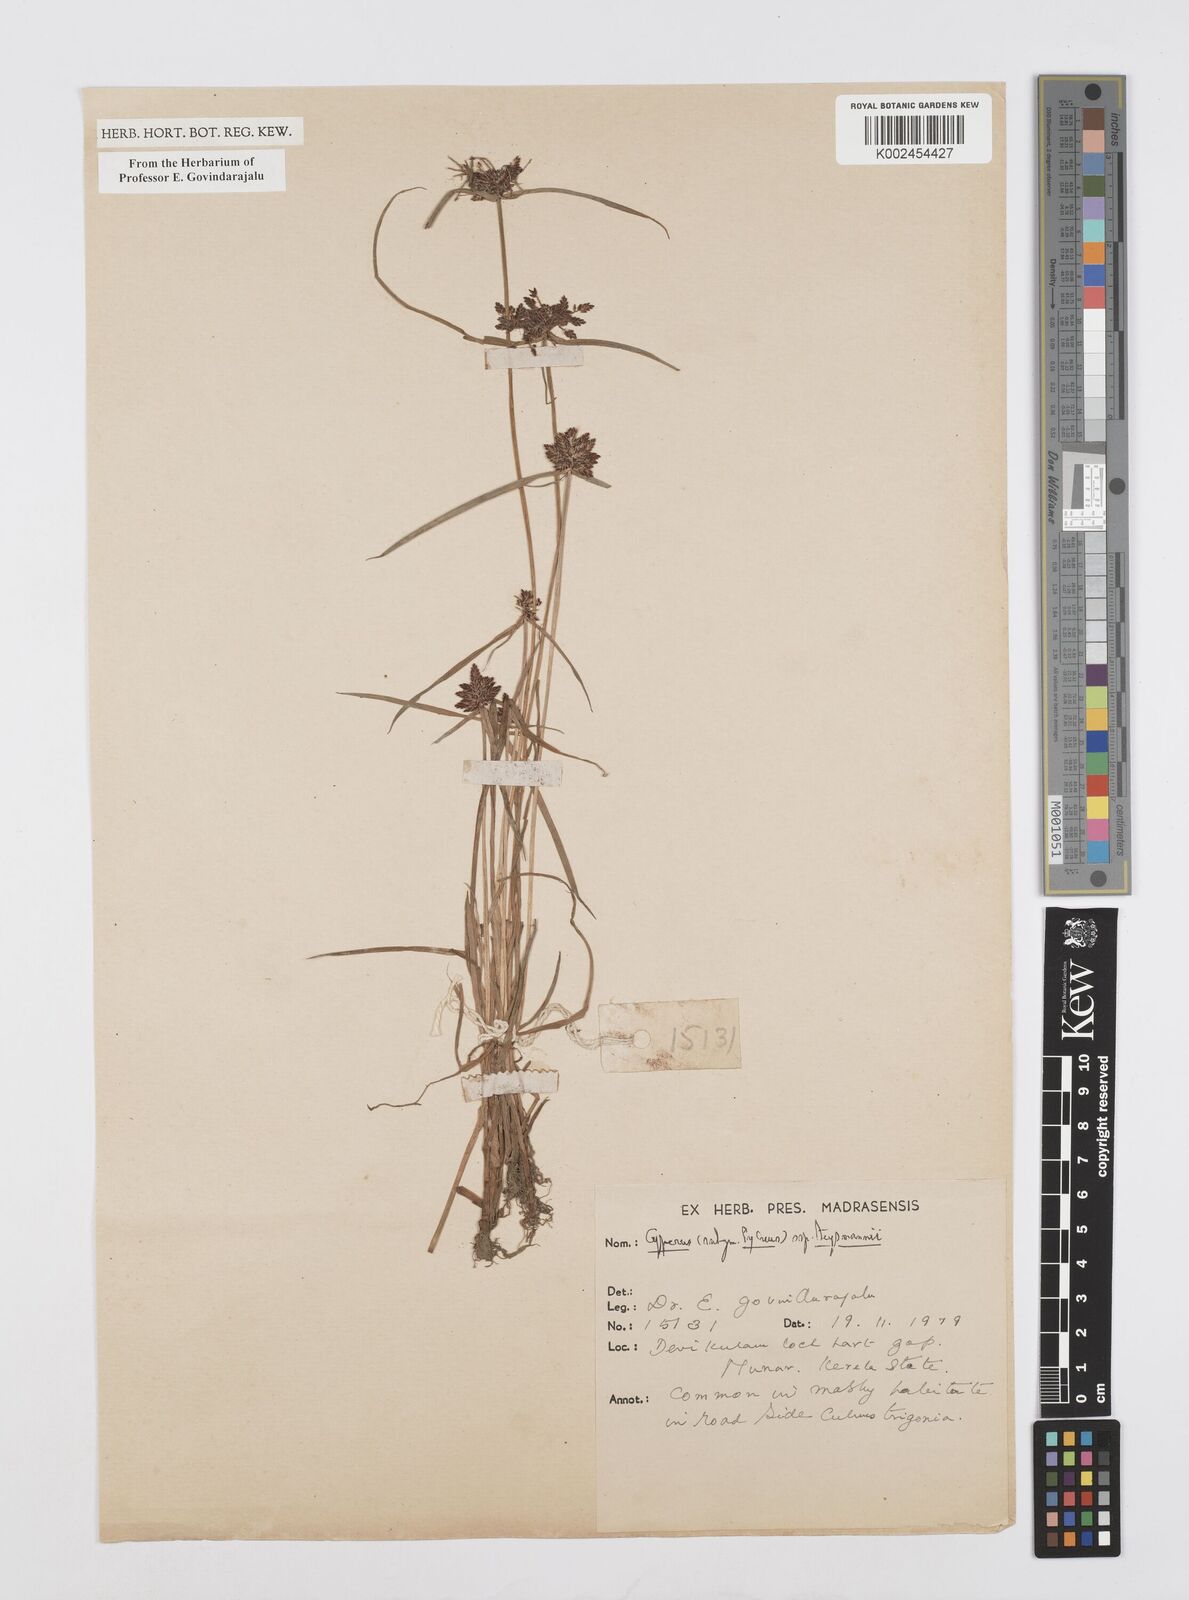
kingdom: Plantae
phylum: Tracheophyta
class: Liliopsida
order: Poales
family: Cyperaceae
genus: Cyperus
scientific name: Cyperus sanguinolentus
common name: Purpleglume flatsedge
